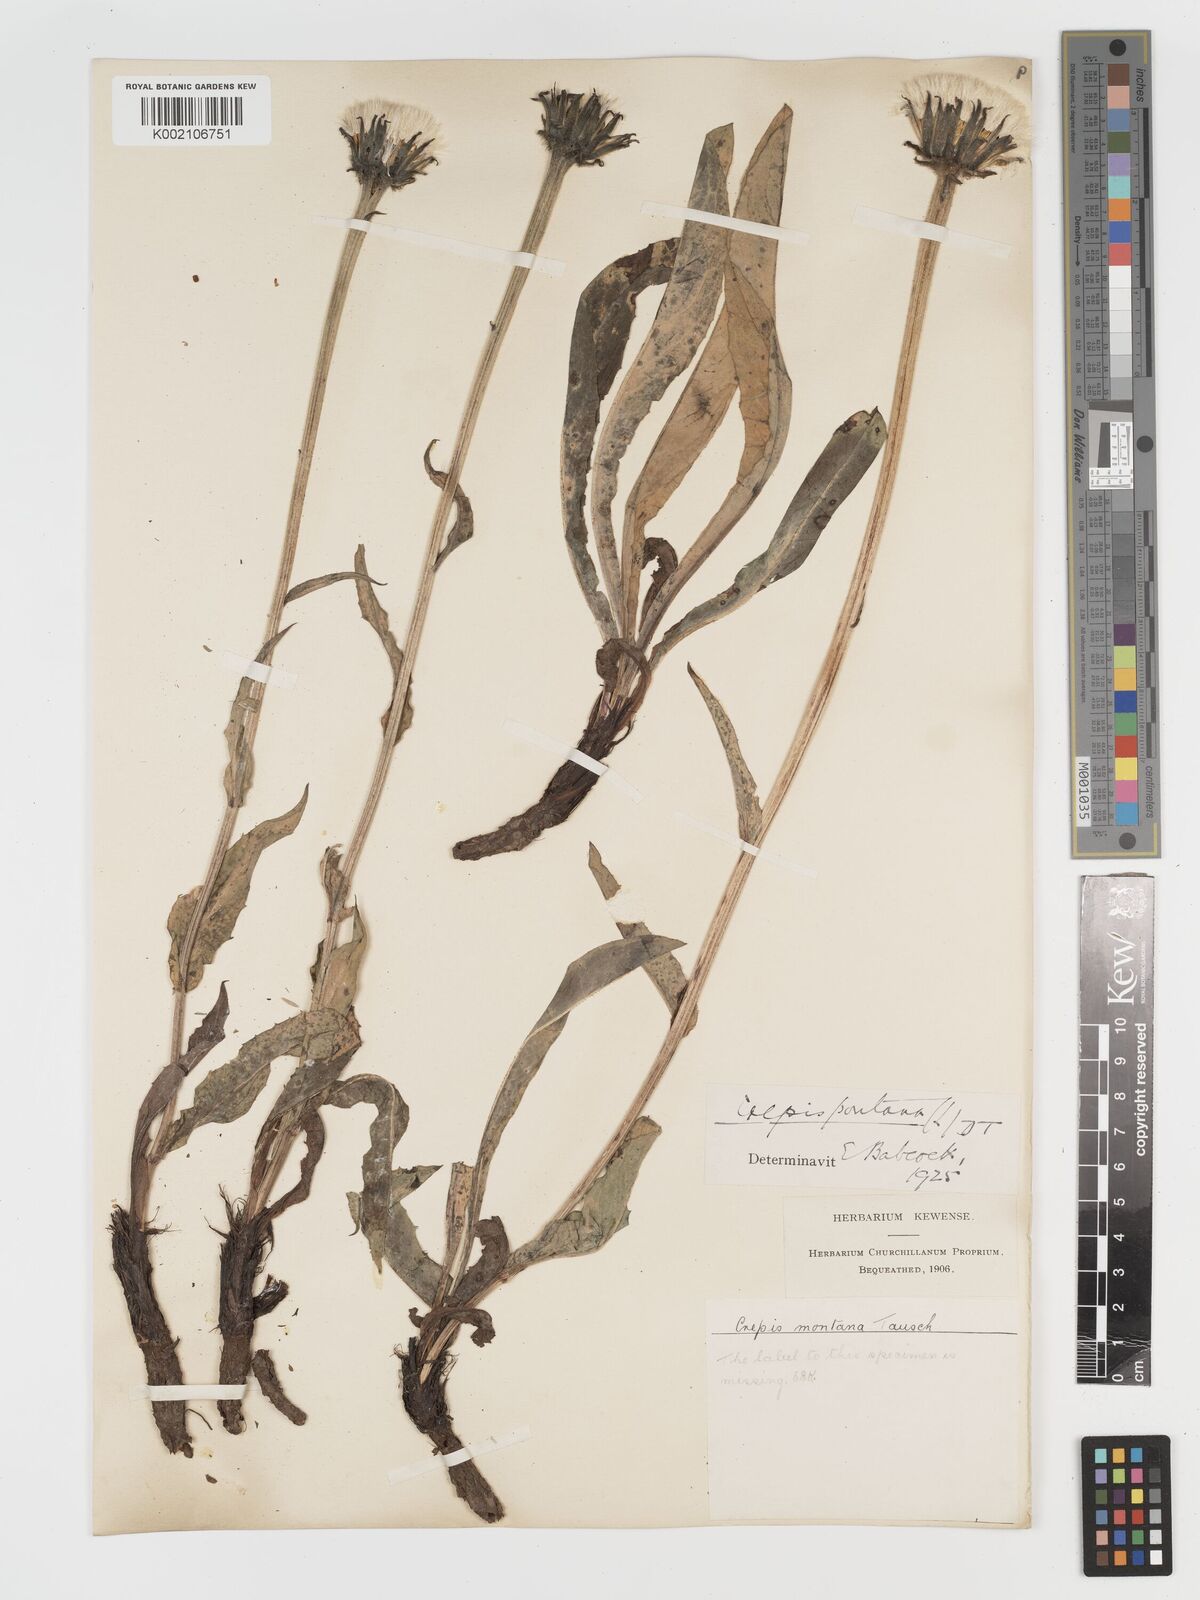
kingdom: Plantae
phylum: Tracheophyta
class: Magnoliopsida
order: Asterales
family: Asteraceae
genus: Crepis
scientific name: Crepis pontana
